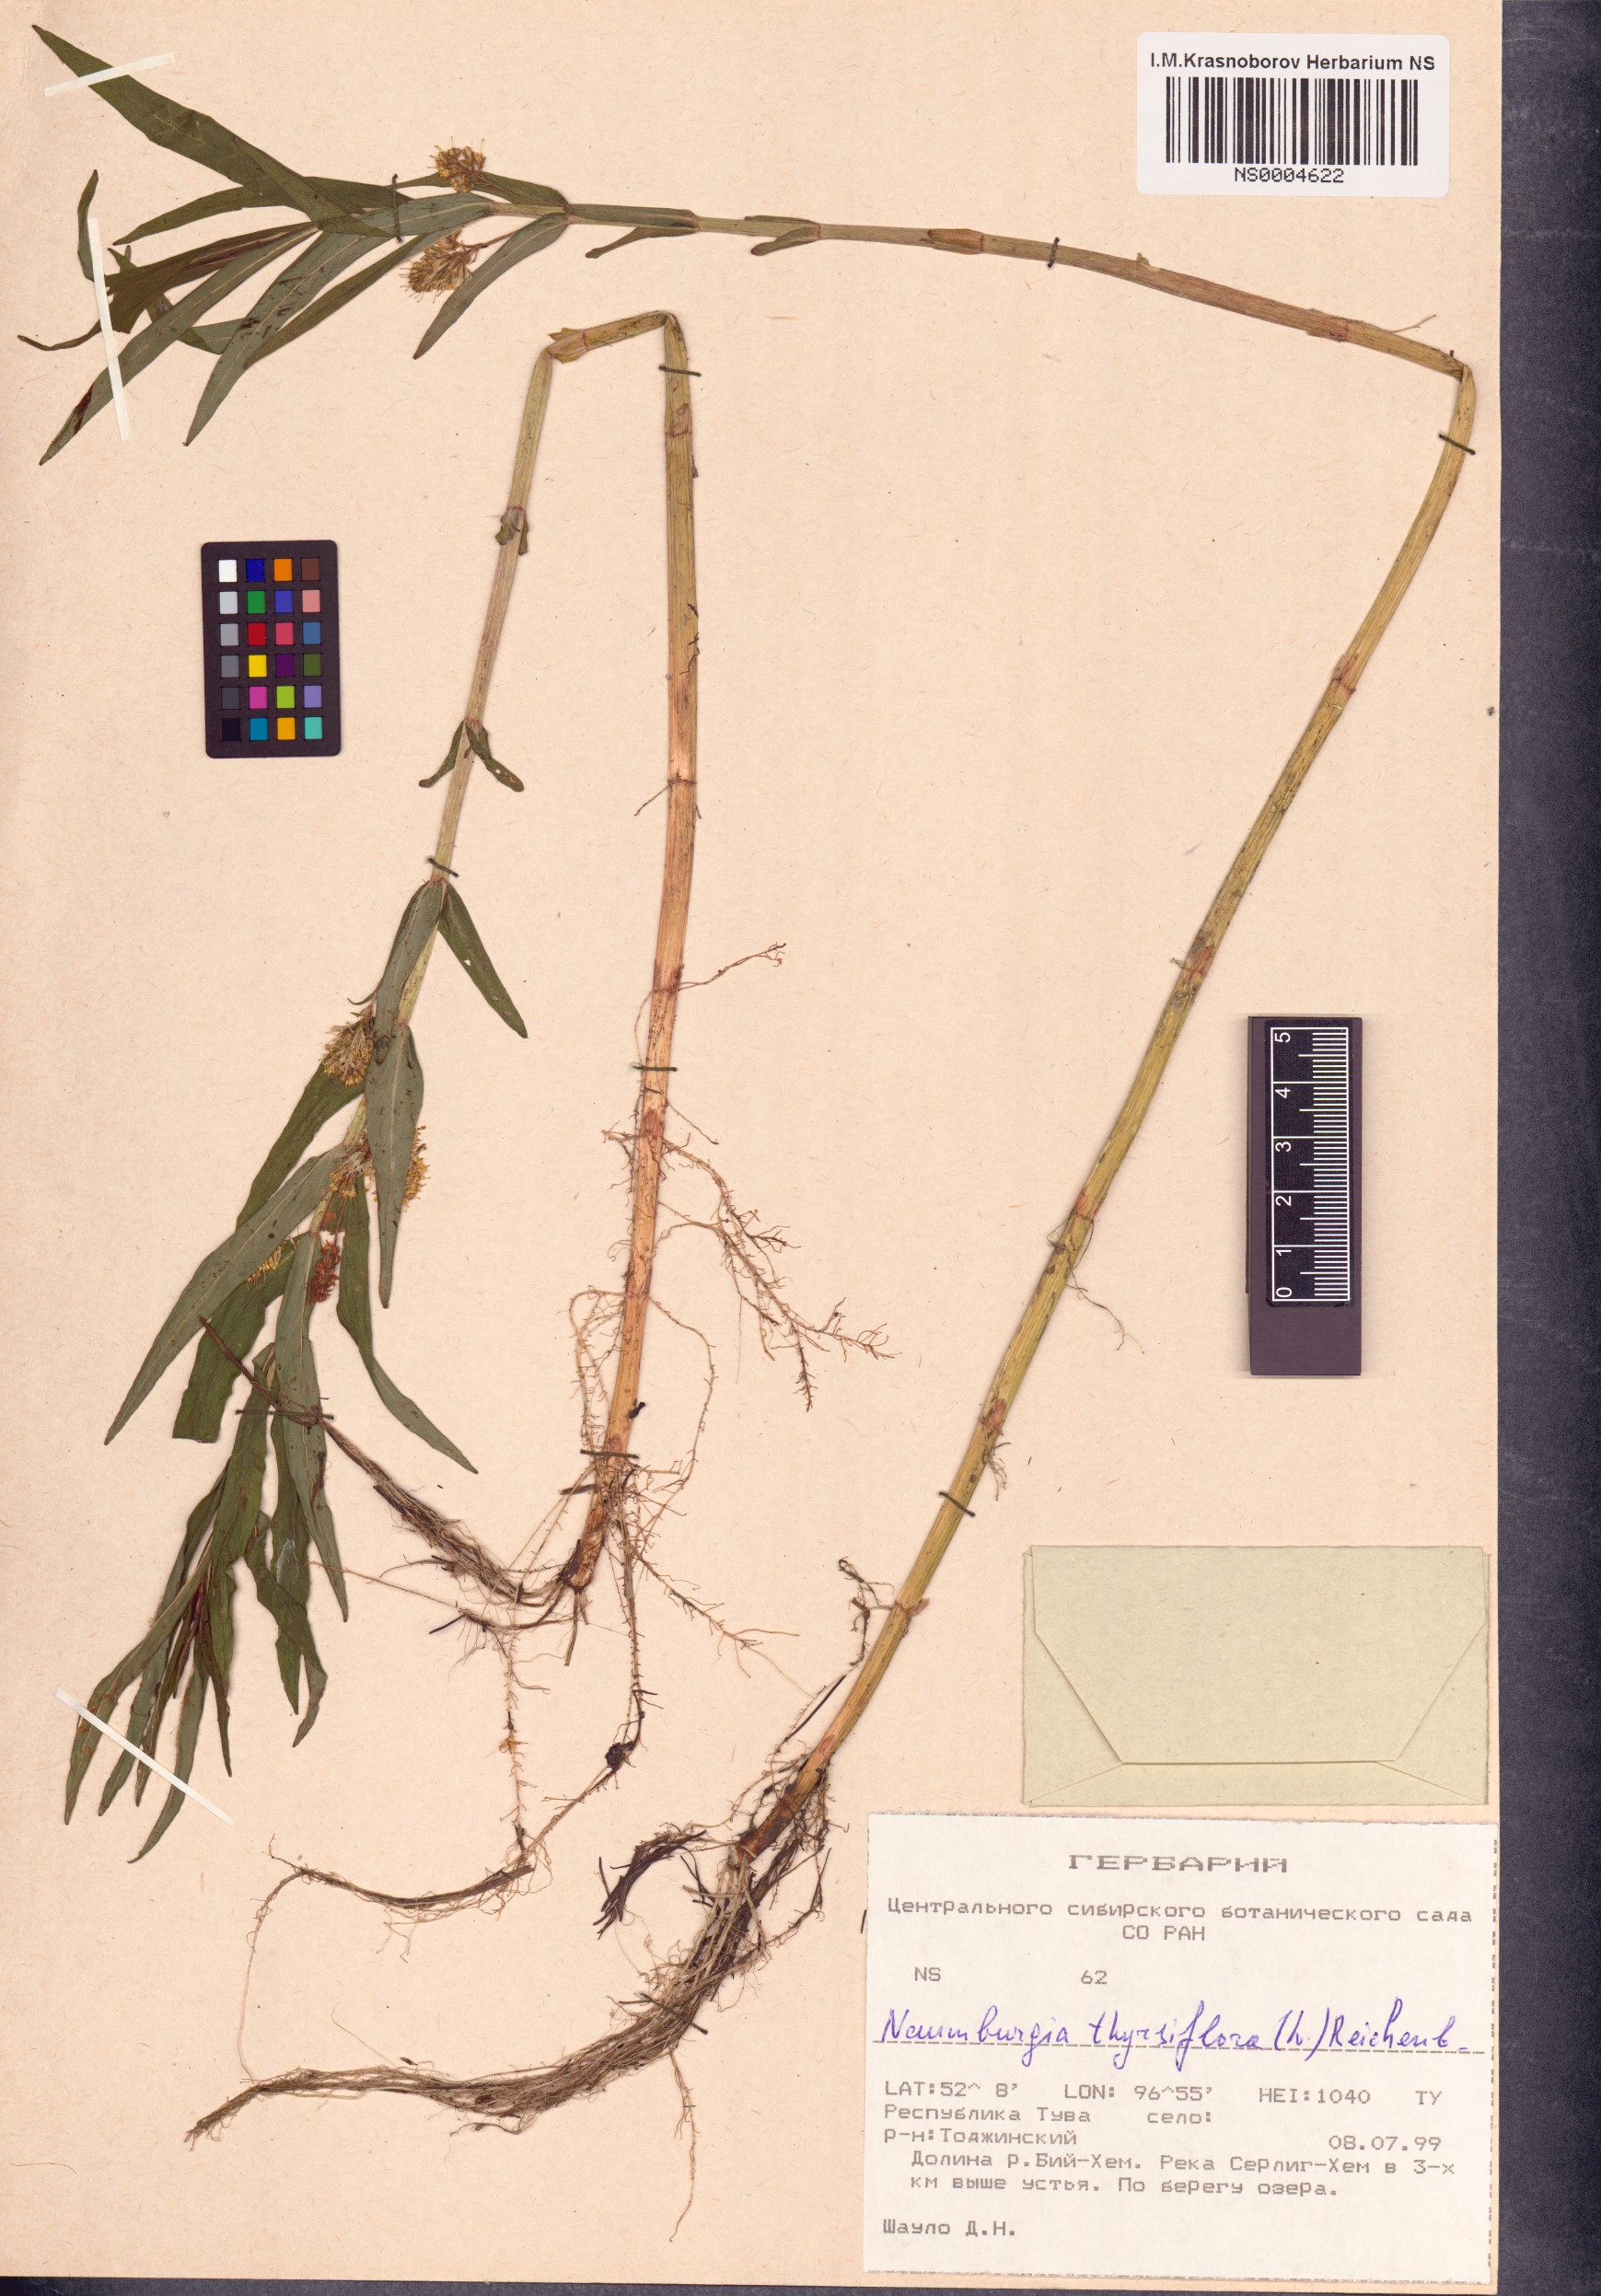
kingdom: Plantae
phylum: Tracheophyta
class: Magnoliopsida
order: Ericales
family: Primulaceae
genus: Lysimachia
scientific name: Lysimachia thyrsiflora
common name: Tufted loosestrife
